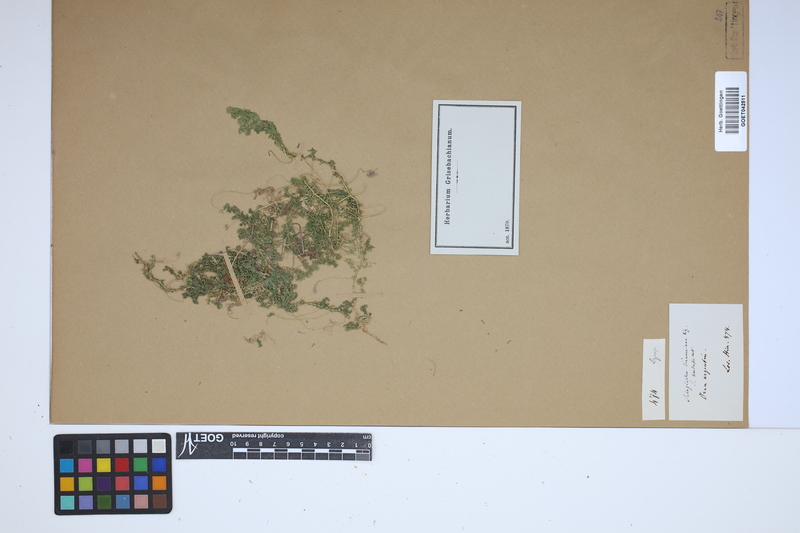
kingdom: Plantae
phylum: Tracheophyta
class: Lycopodiopsida
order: Selaginellales
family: Selaginellaceae
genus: Selaginella
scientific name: Selaginella kraussiana
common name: Krauss' spikemoss
